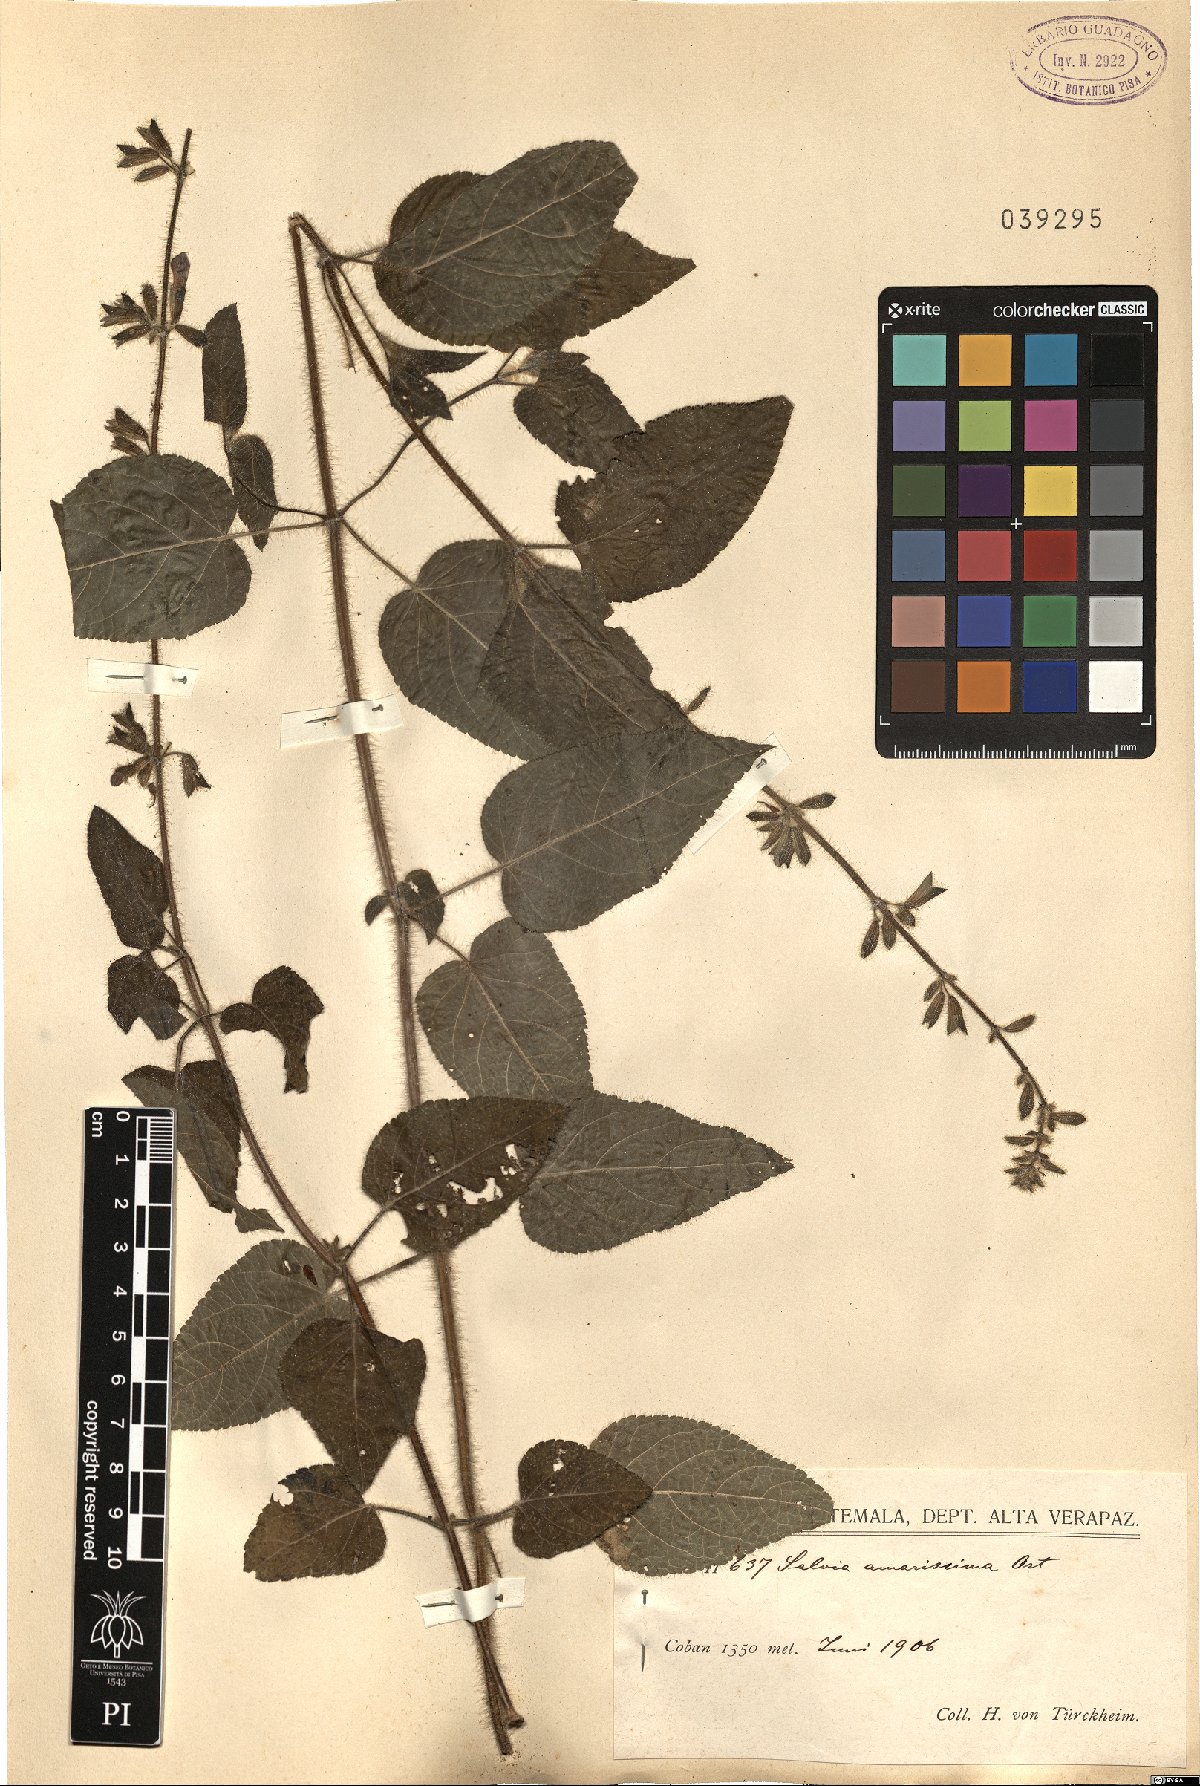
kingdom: Plantae
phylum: Tracheophyta
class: Magnoliopsida
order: Lamiales
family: Lamiaceae
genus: Salvia
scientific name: Salvia circinnata
